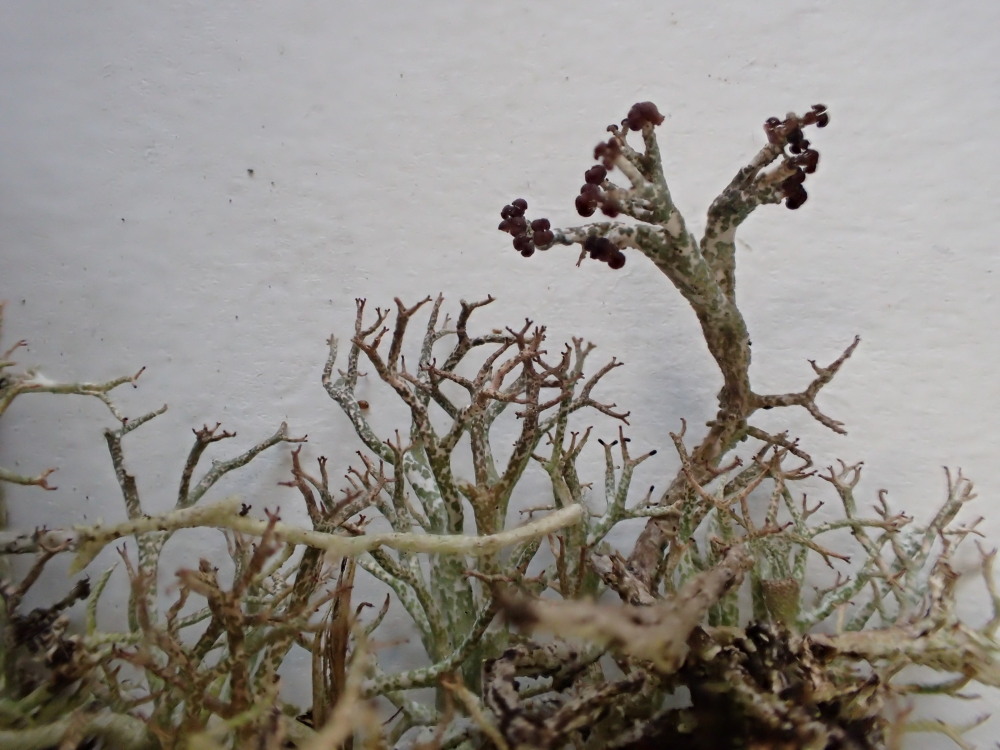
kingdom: Fungi
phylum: Ascomycota
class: Lecanoromycetes
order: Lecanorales
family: Cladoniaceae
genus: Cladonia
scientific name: Cladonia rangiformis
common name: spættet bægerlav
